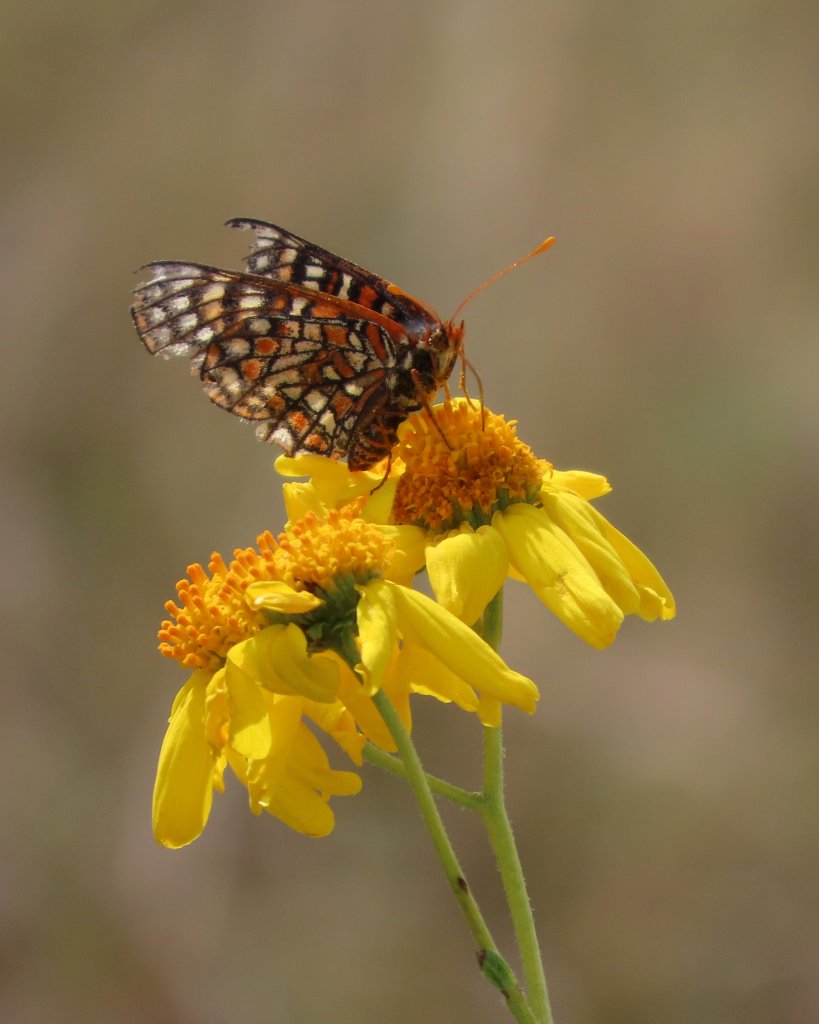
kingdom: Animalia
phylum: Arthropoda
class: Insecta
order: Lepidoptera
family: Nymphalidae
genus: Occidryas
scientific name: Occidryas chalcedona
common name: Chalcedon Checkerspot
